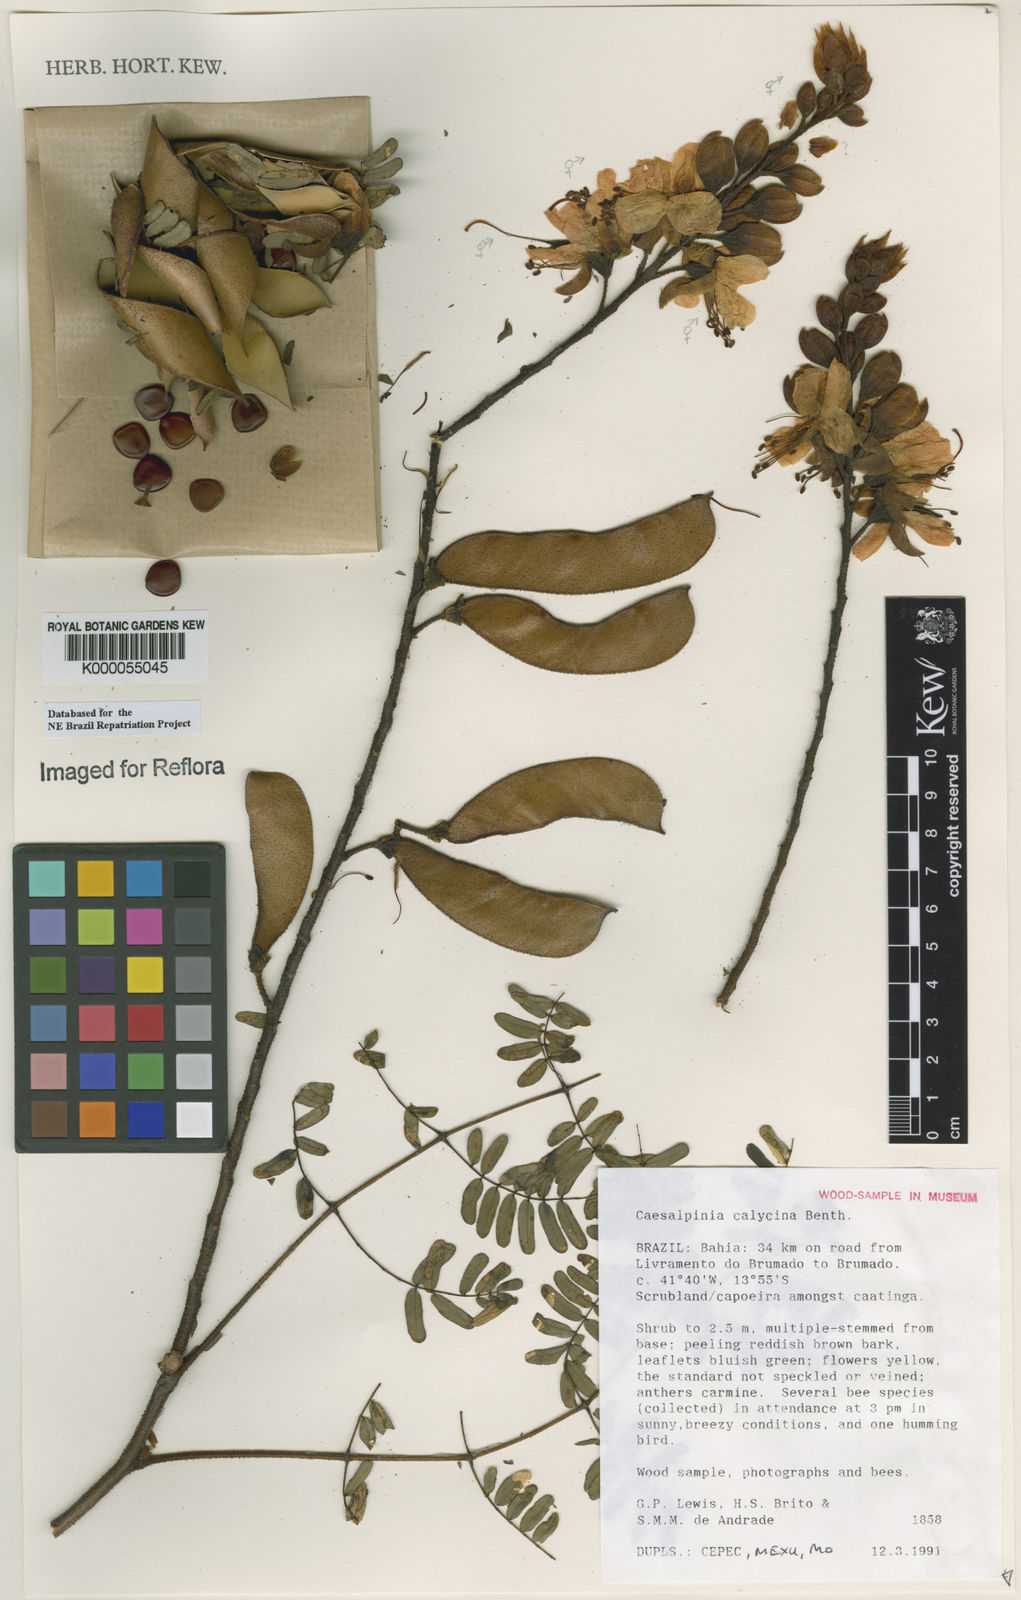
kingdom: Plantae
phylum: Tracheophyta
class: Magnoliopsida
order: Fabales
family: Fabaceae
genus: Erythrostemon
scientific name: Erythrostemon calycinus
